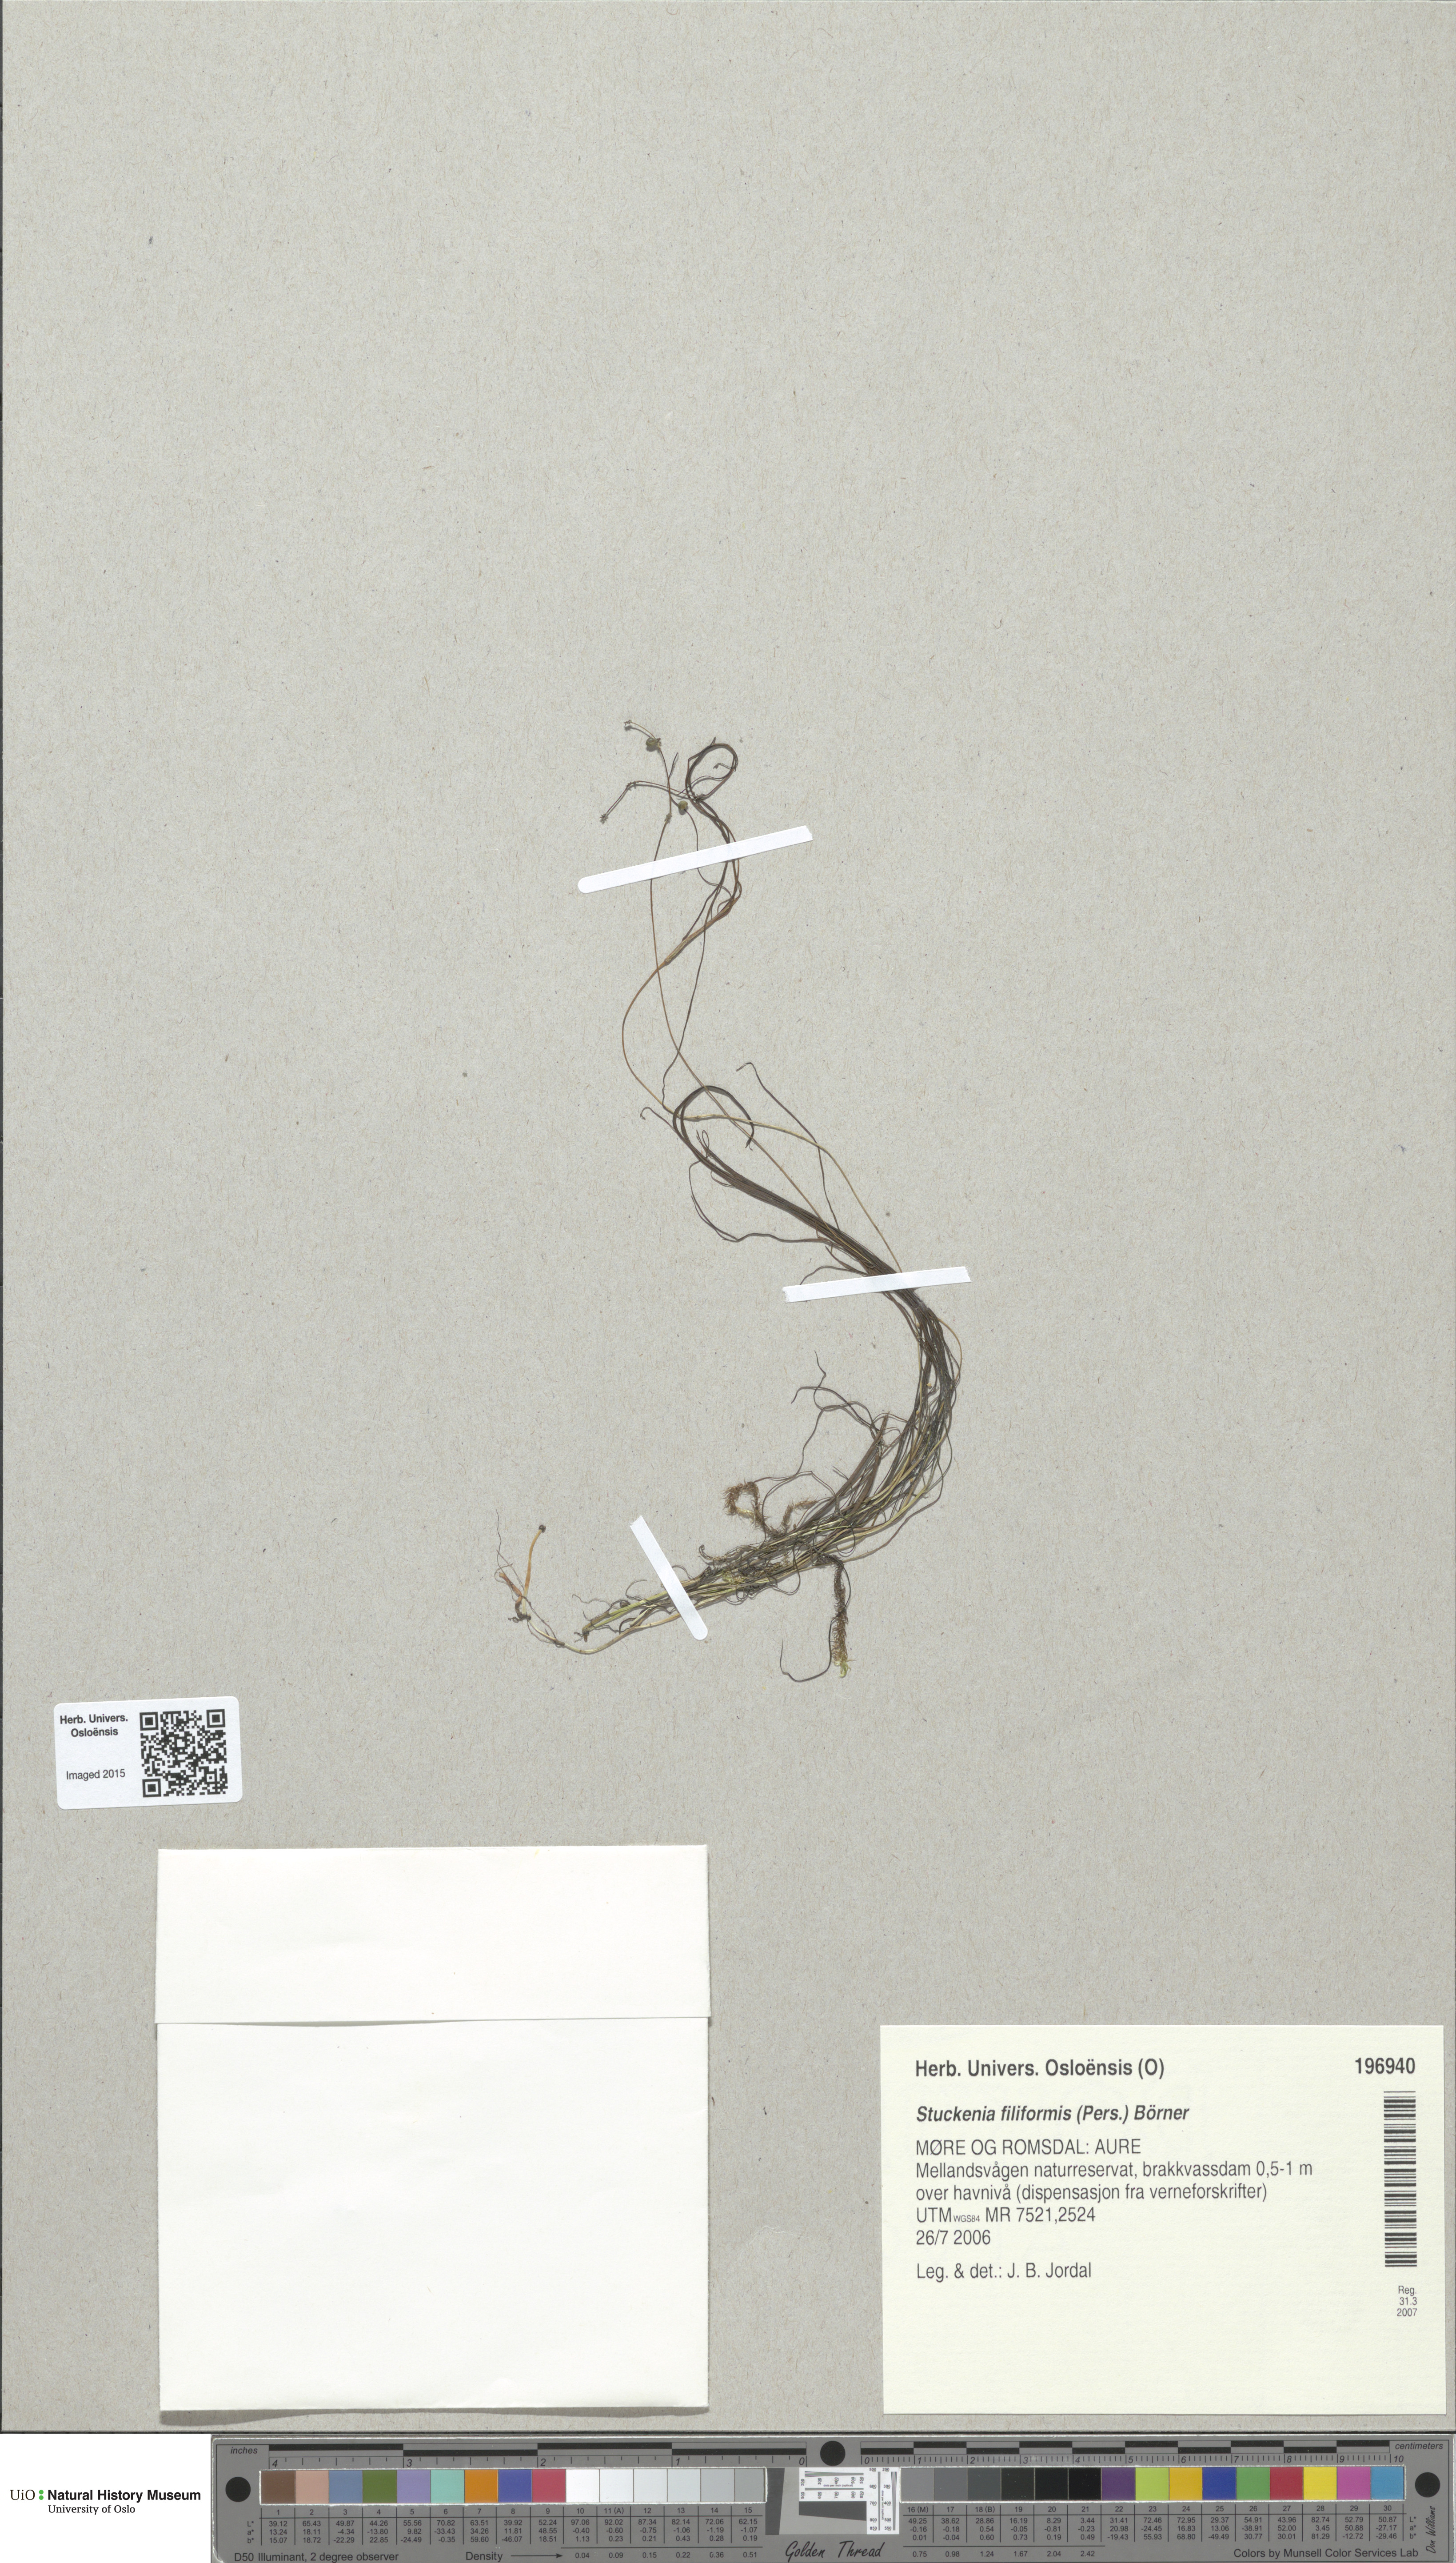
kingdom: Plantae
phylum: Tracheophyta
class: Liliopsida
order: Alismatales
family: Potamogetonaceae
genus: Stuckenia
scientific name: Stuckenia filiformis
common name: Alpine thread-leaved pondweed
